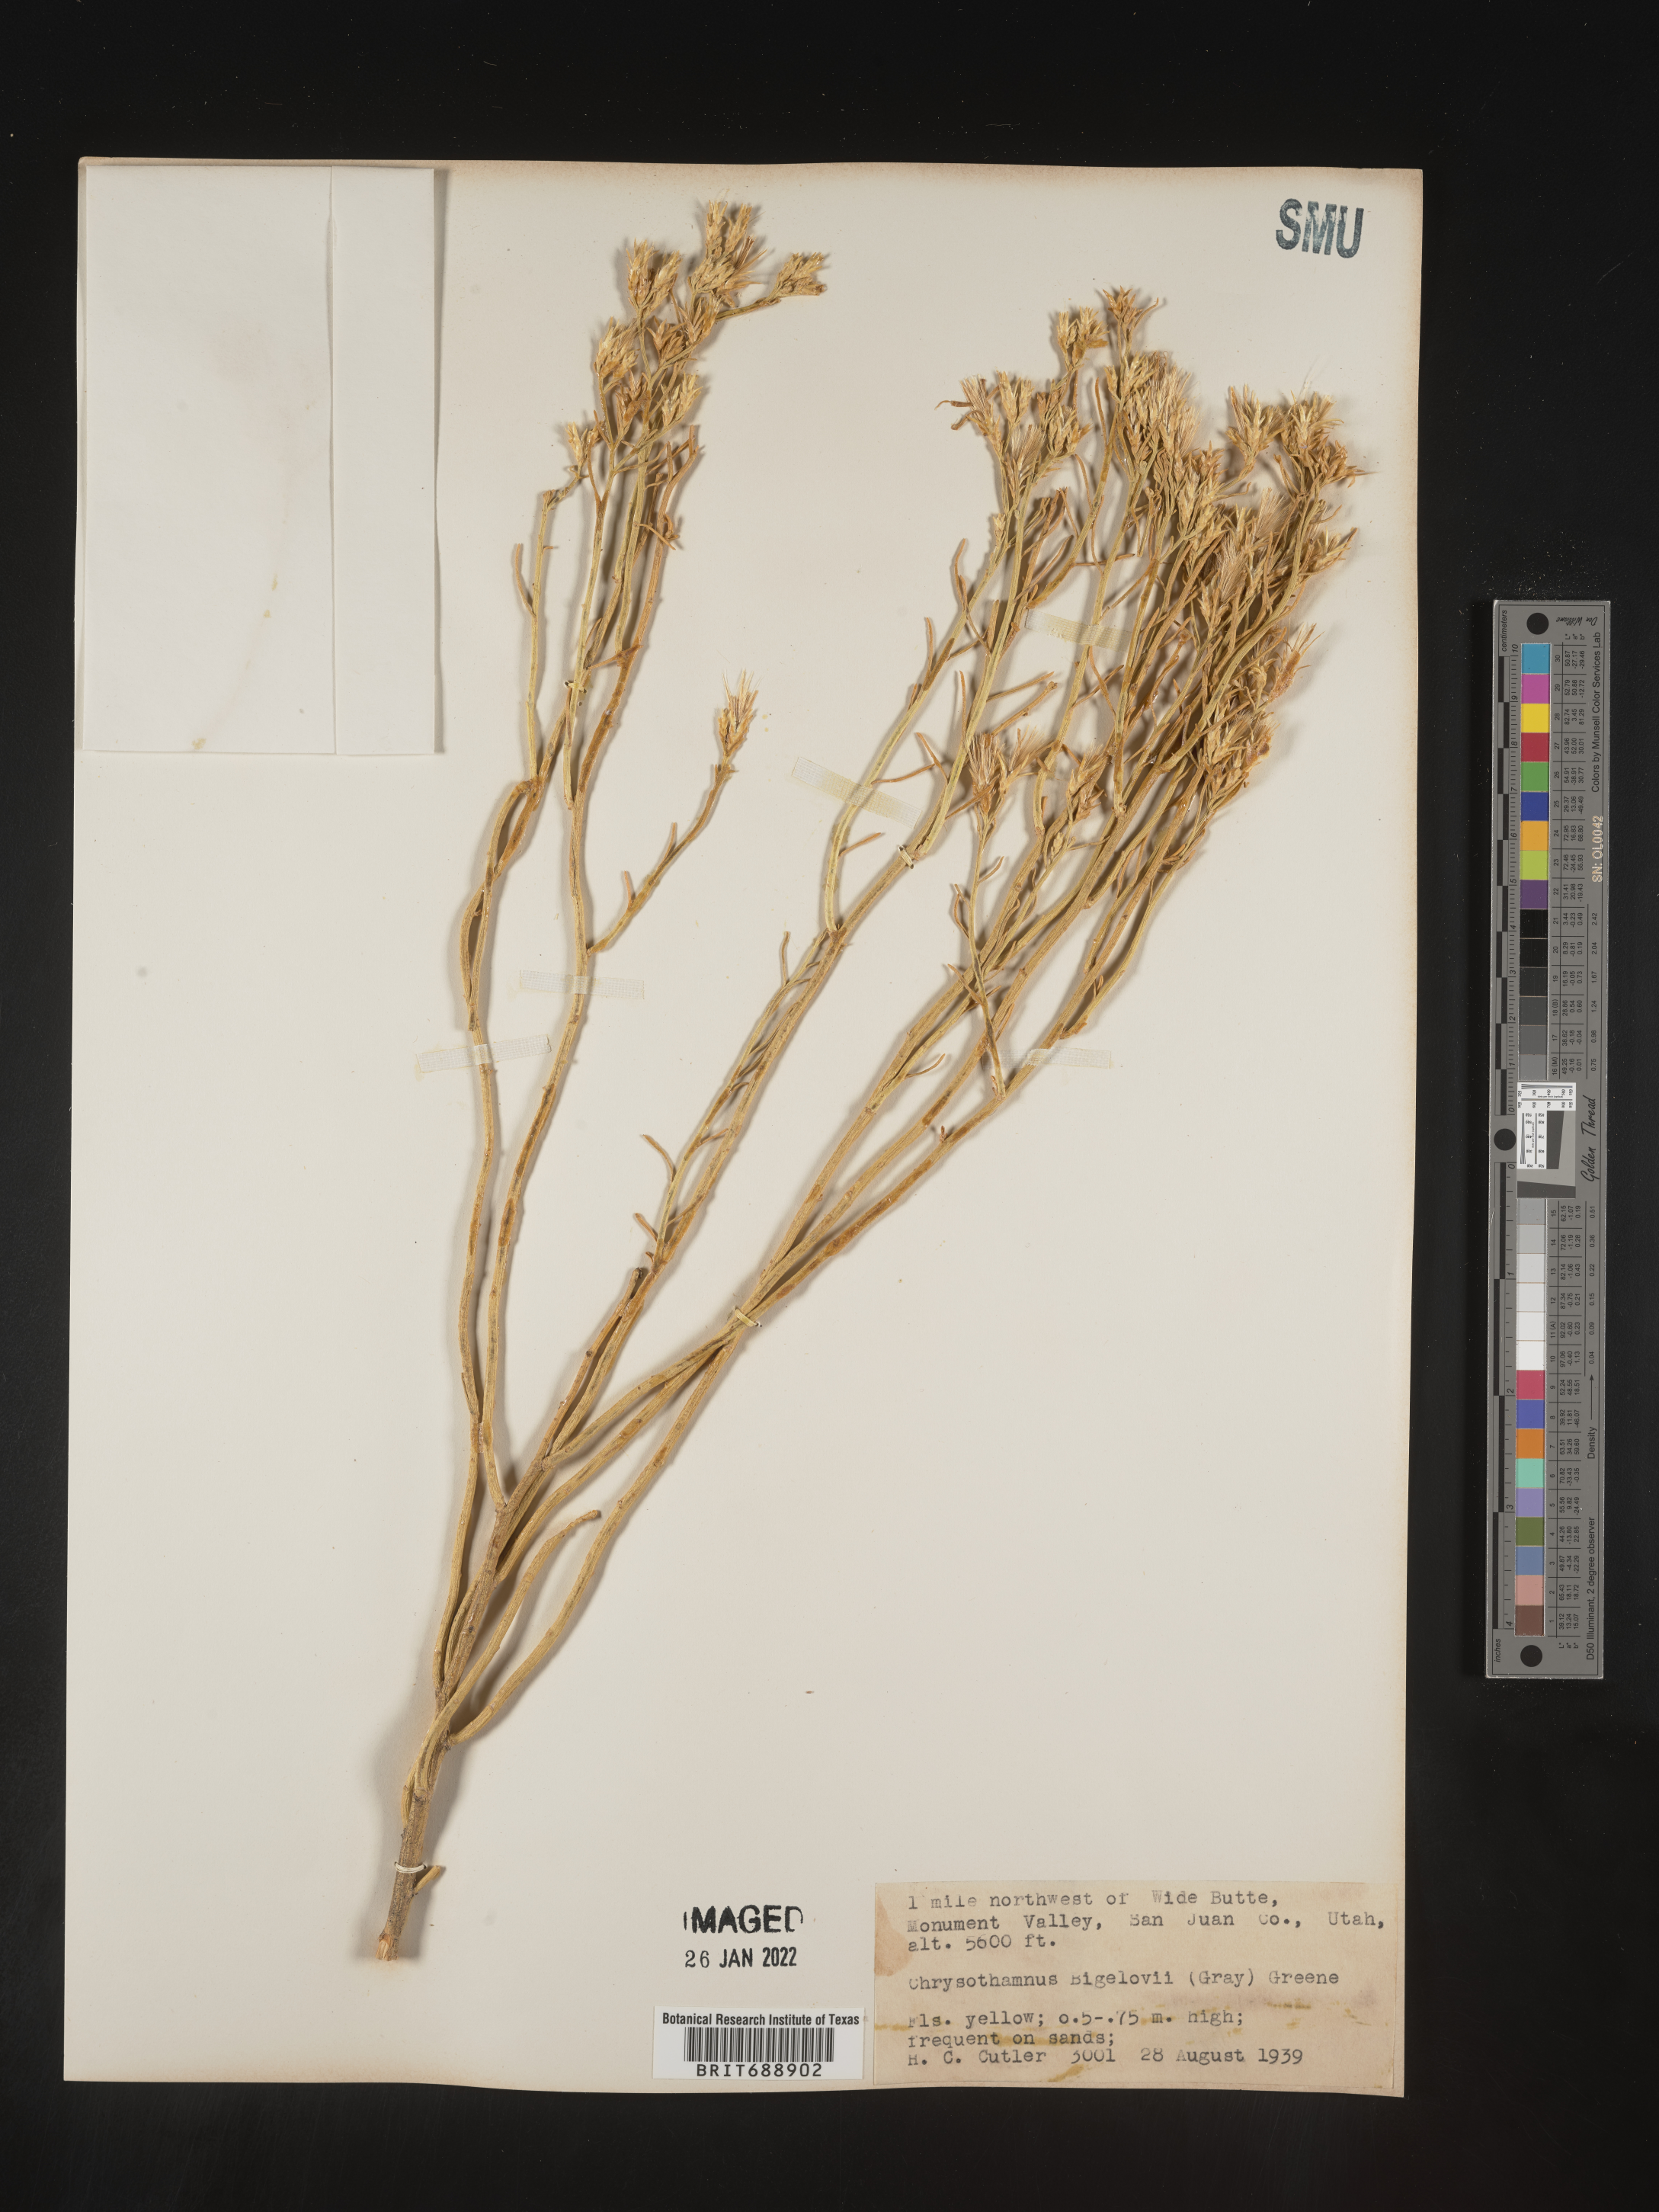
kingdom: Plantae
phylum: Tracheophyta
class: Magnoliopsida
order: Asterales
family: Asteraceae
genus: Chrysothamnus
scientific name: Chrysothamnus
